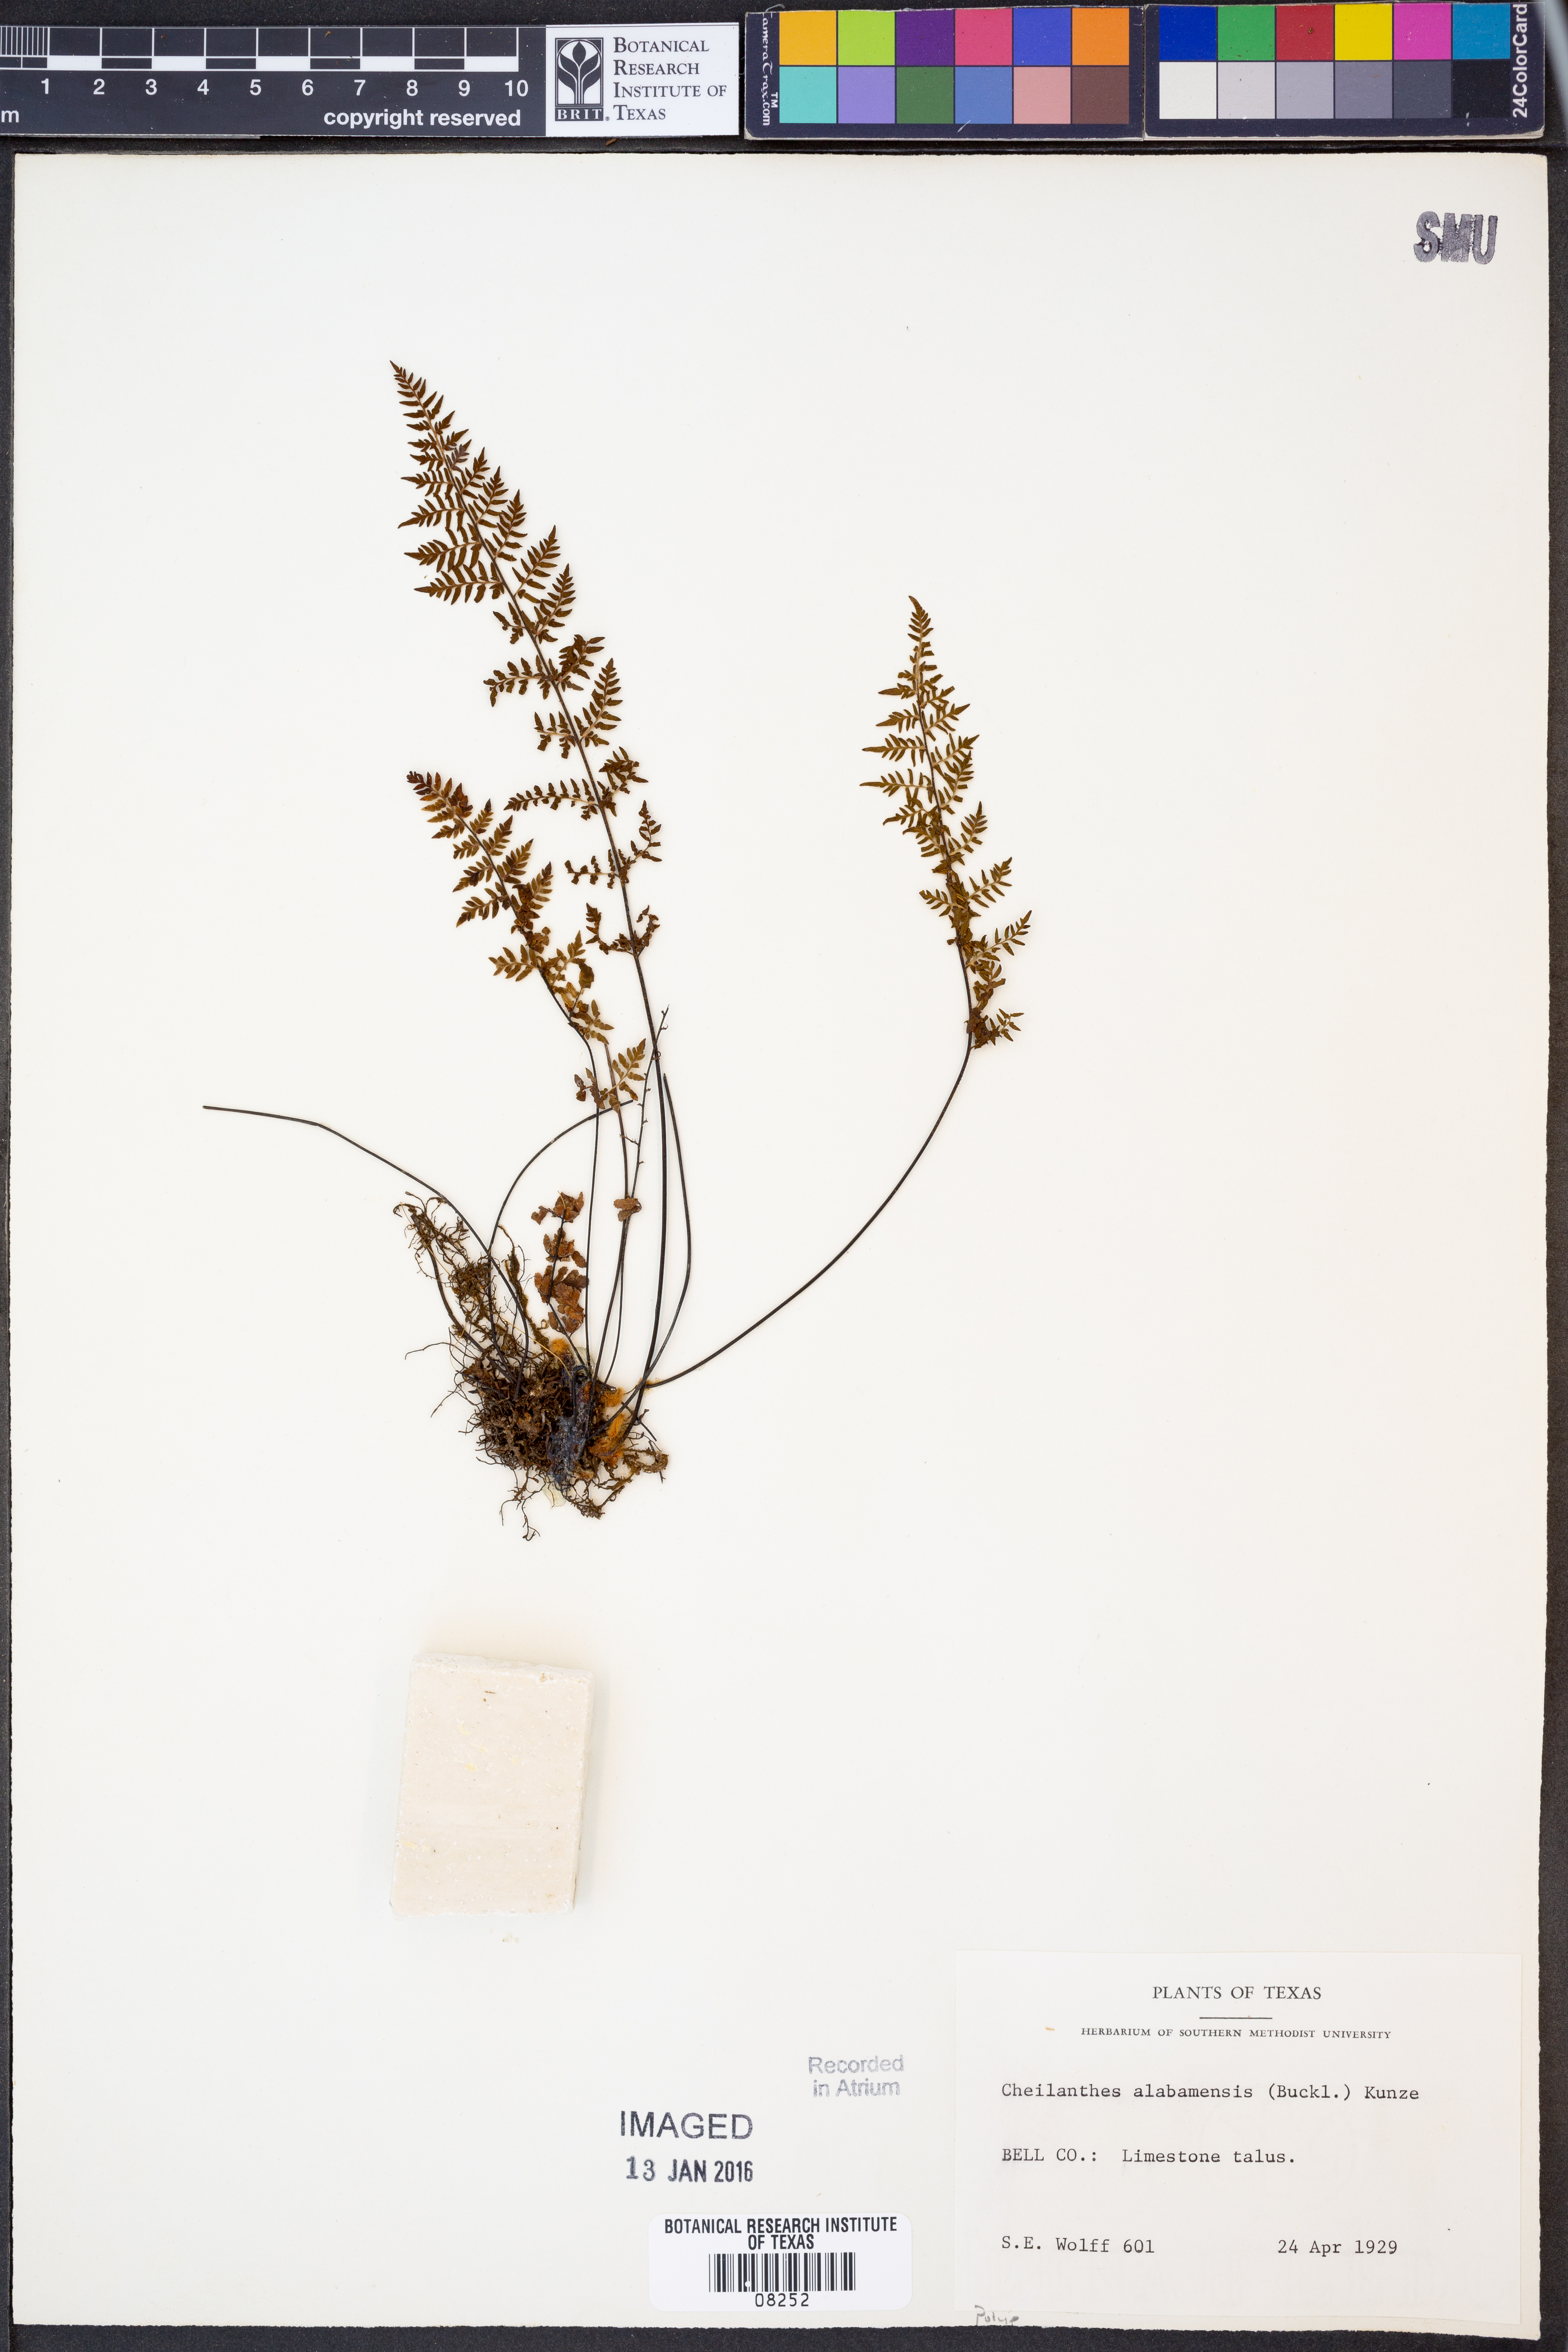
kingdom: Plantae
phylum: Tracheophyta
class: Polypodiopsida
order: Polypodiales
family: Pteridaceae
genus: Myriopteris
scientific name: Myriopteris alabamensis
